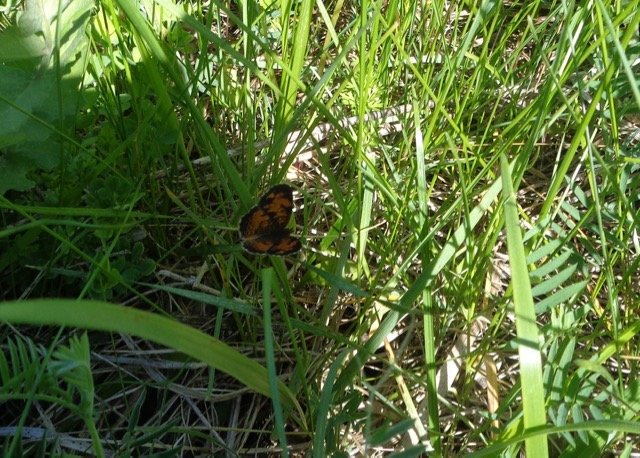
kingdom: Animalia
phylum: Arthropoda
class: Insecta
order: Lepidoptera
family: Nymphalidae
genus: Phyciodes
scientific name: Phyciodes tharos
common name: Pearl Crescent
